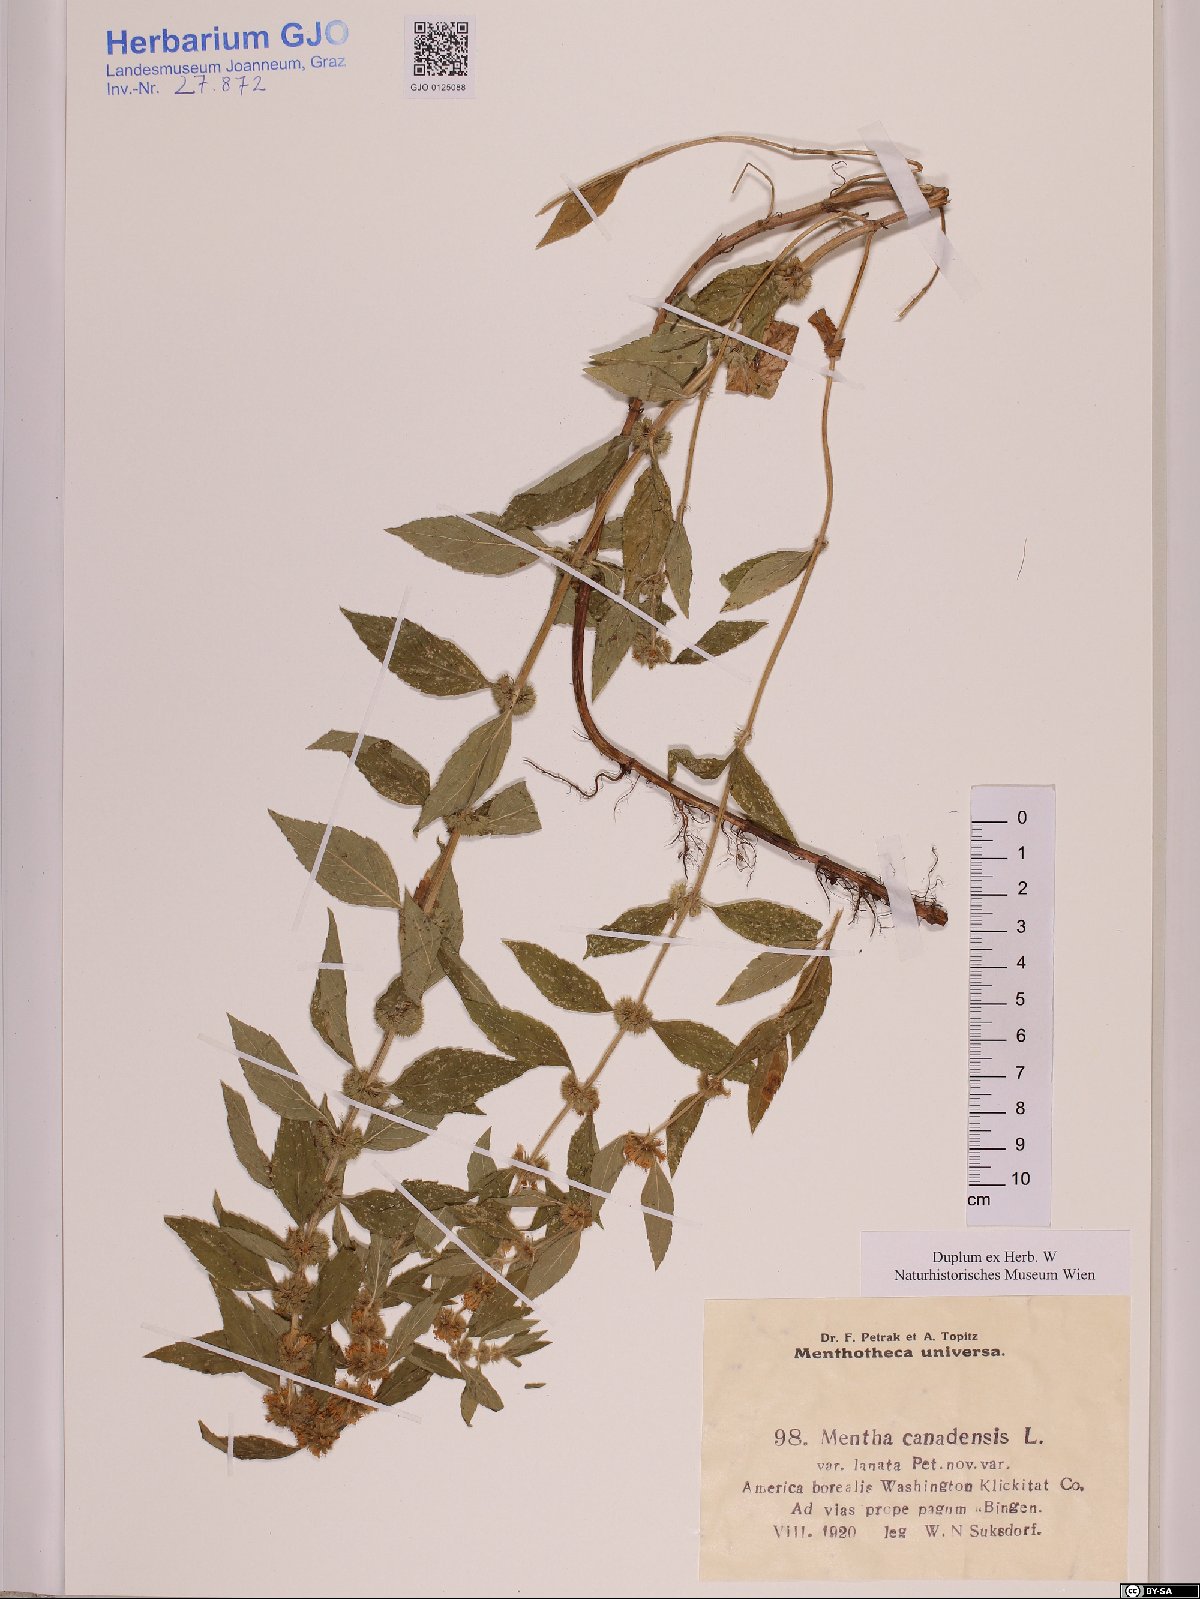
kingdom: Plantae
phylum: Tracheophyta
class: Magnoliopsida
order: Lamiales
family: Lamiaceae
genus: Mentha
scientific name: Mentha canadensis
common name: American corn mint
